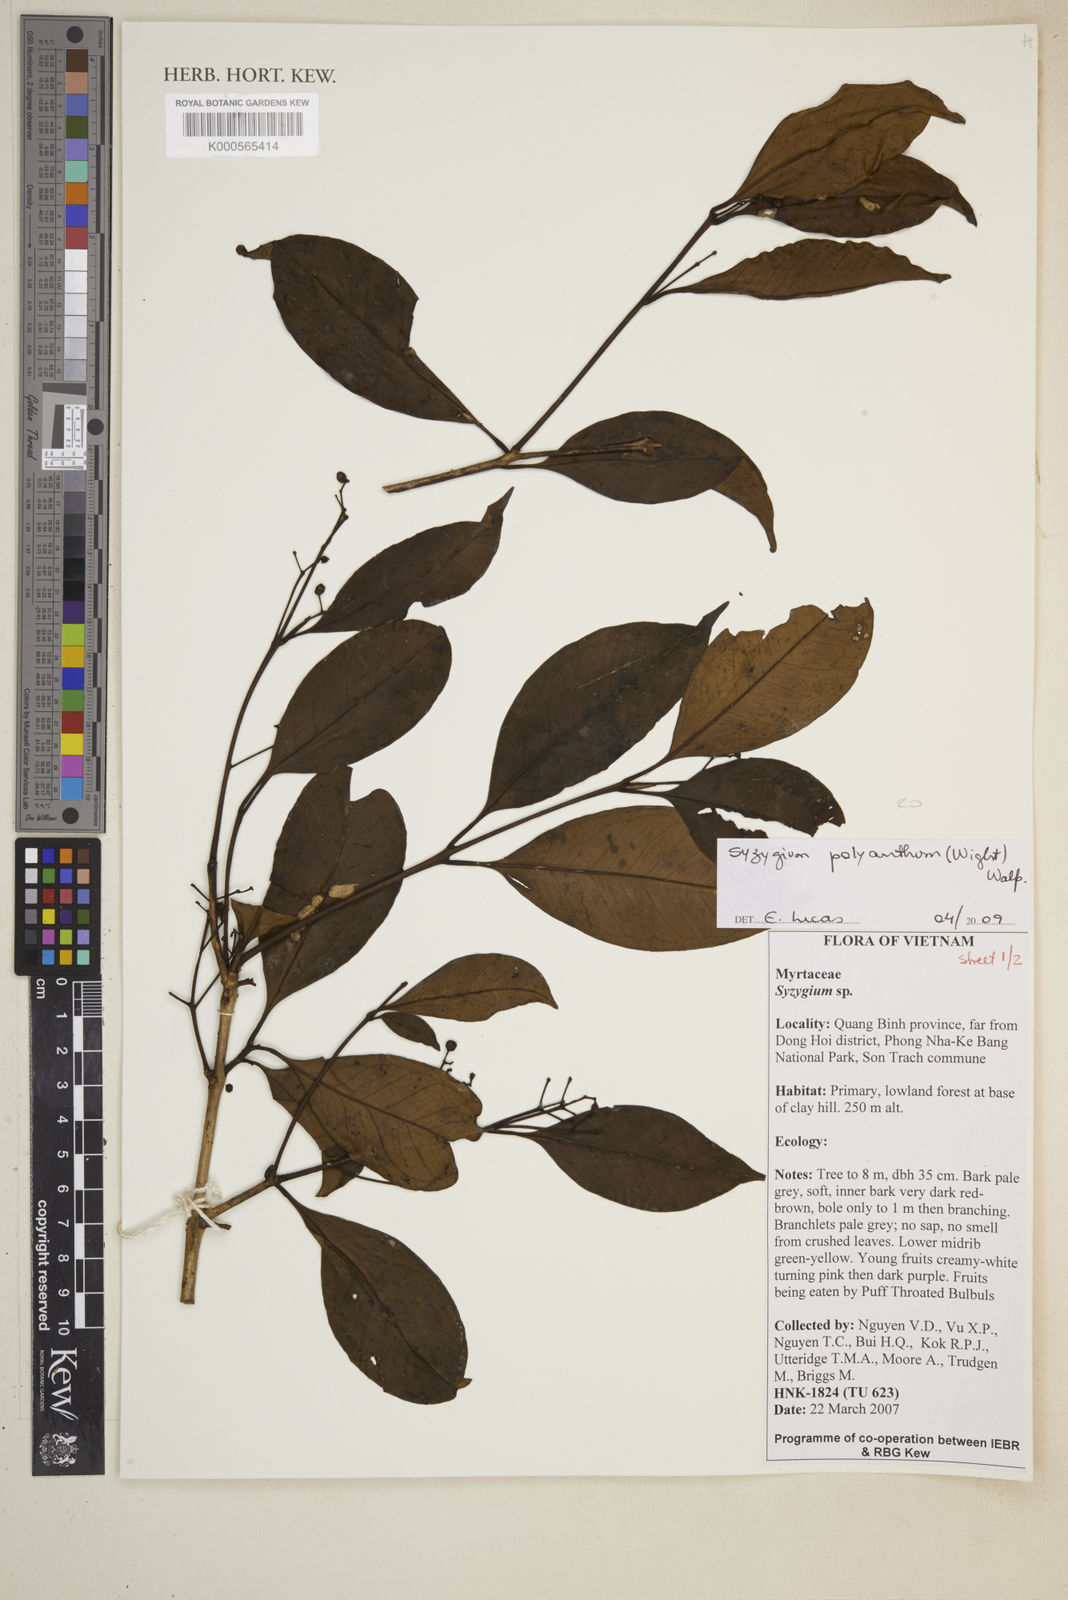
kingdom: Plantae
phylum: Tracheophyta
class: Magnoliopsida
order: Myrtales
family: Myrtaceae
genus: Syzygium
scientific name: Syzygium polyanthum
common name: Indonesian bayleaf
